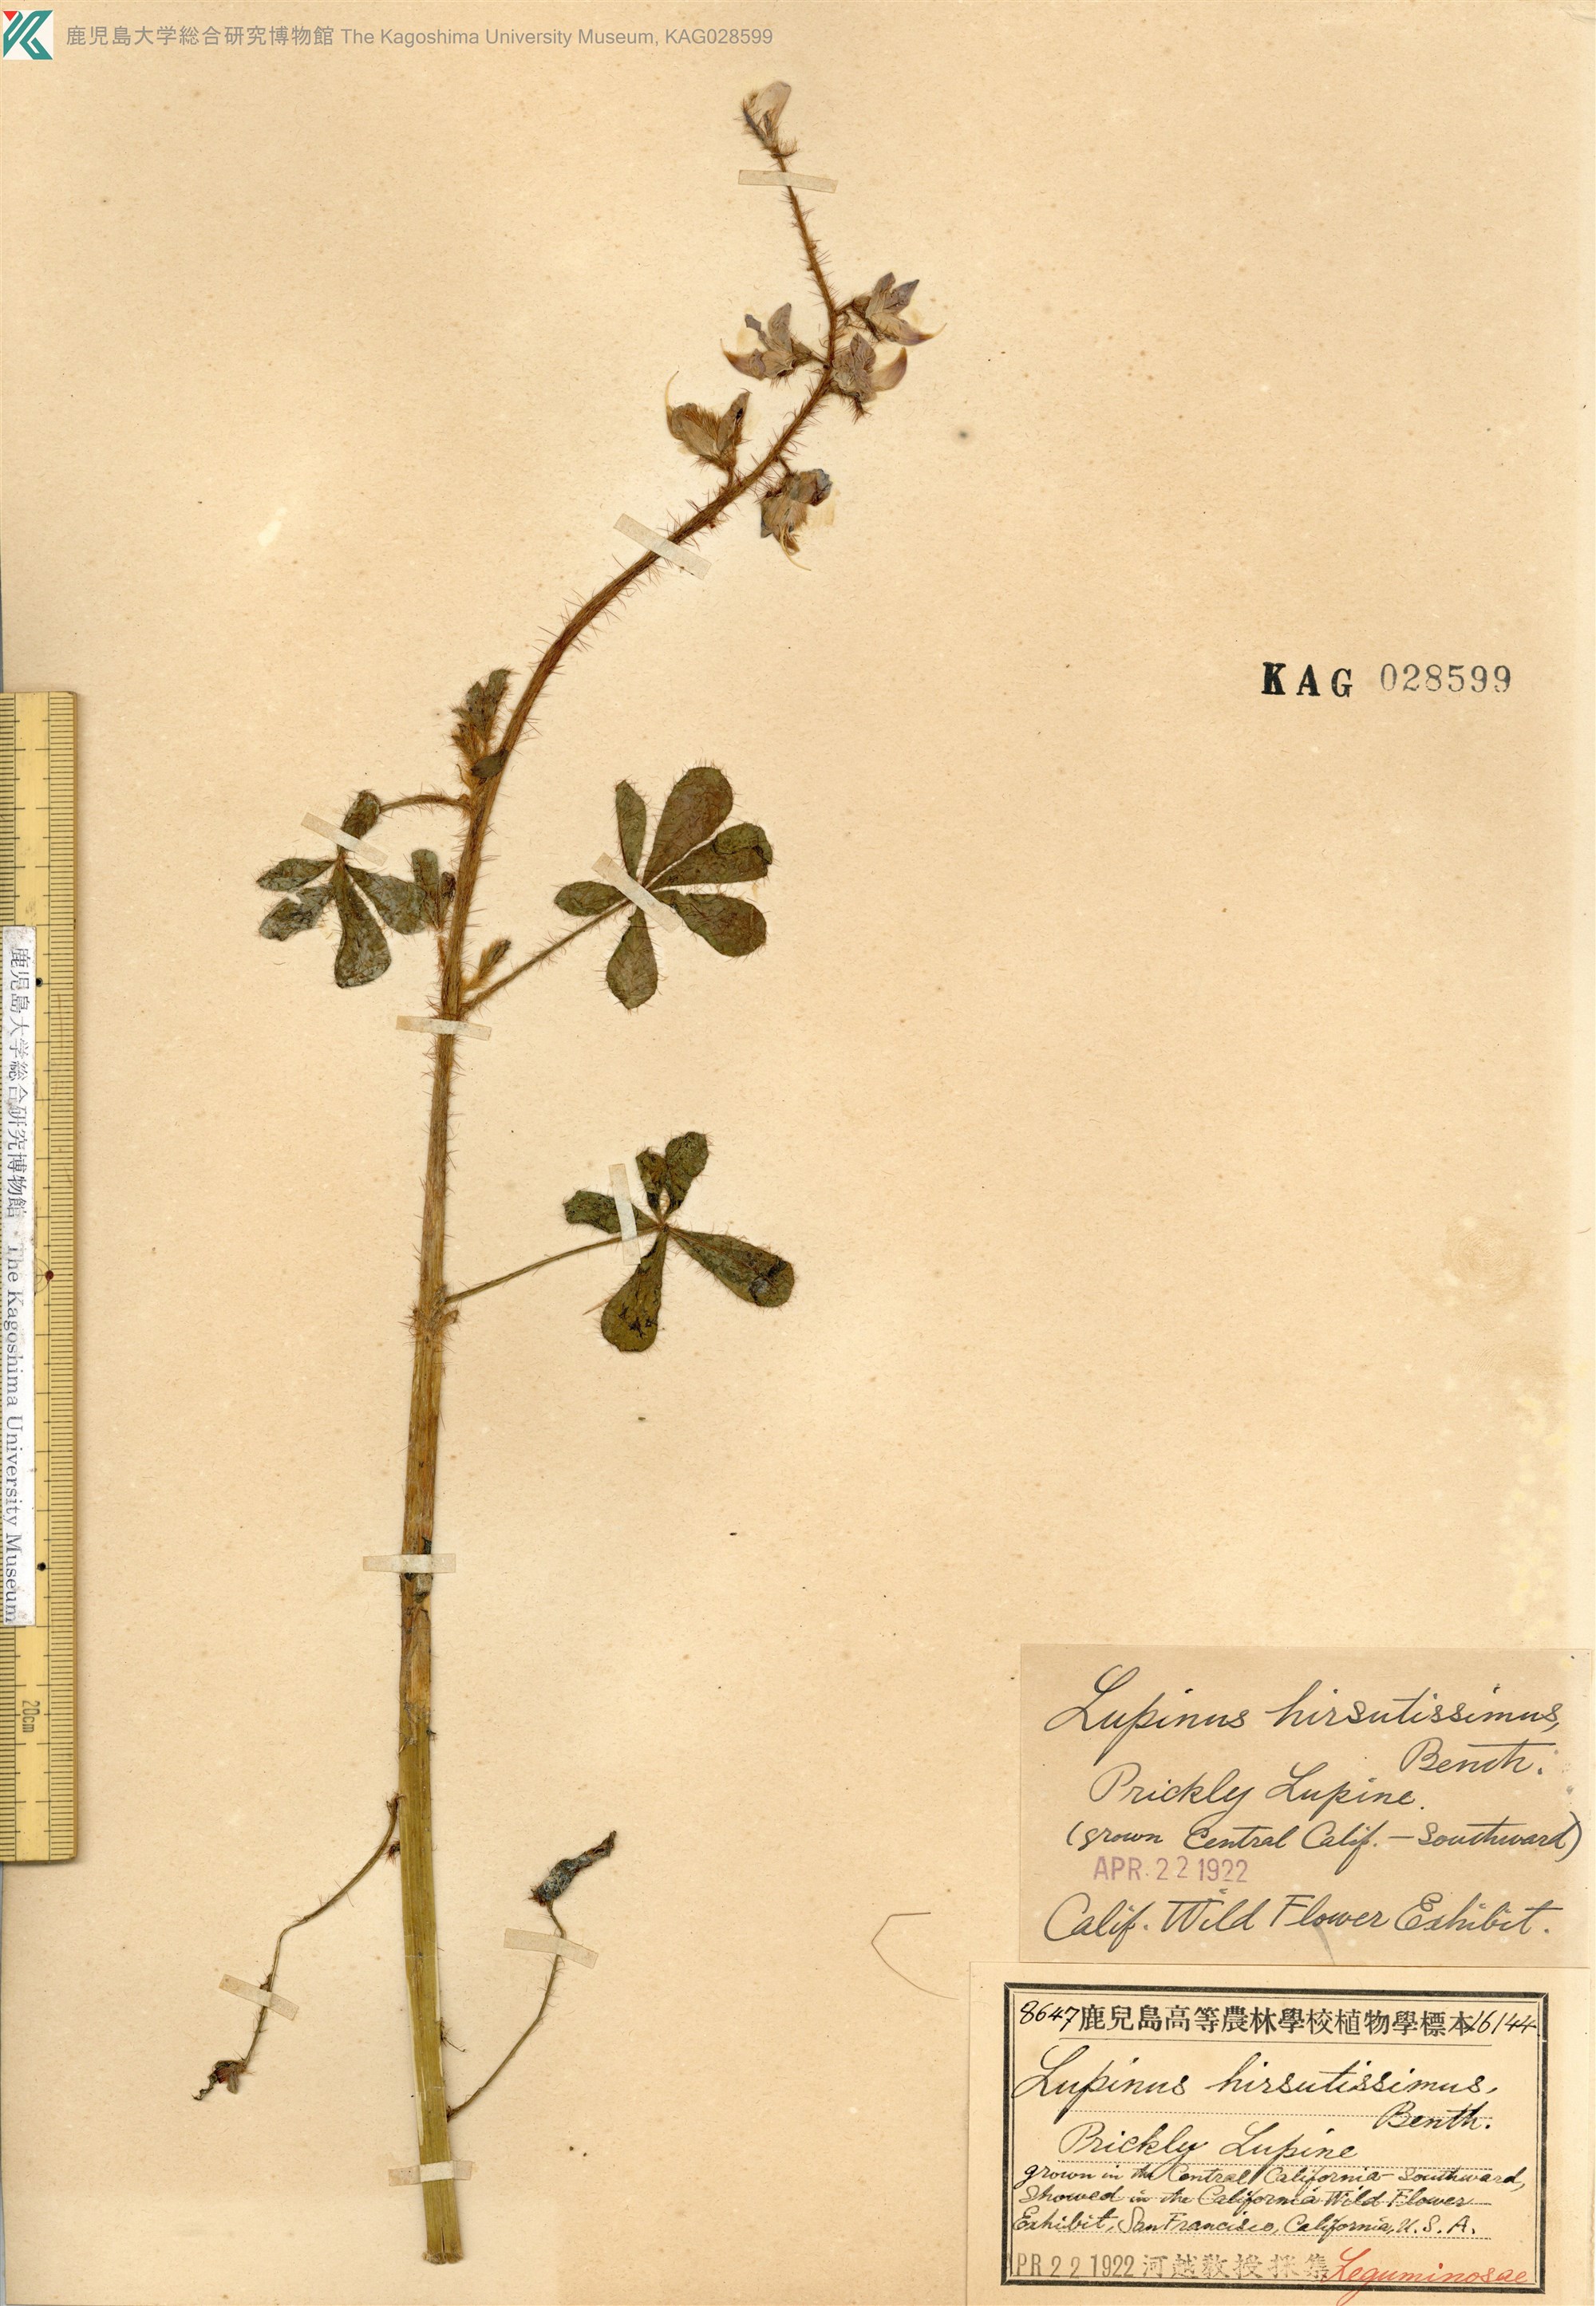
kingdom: Plantae
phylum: Tracheophyta
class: Magnoliopsida
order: Fabales
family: Fabaceae
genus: Lupinus
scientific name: Lupinus hirsutissimus
